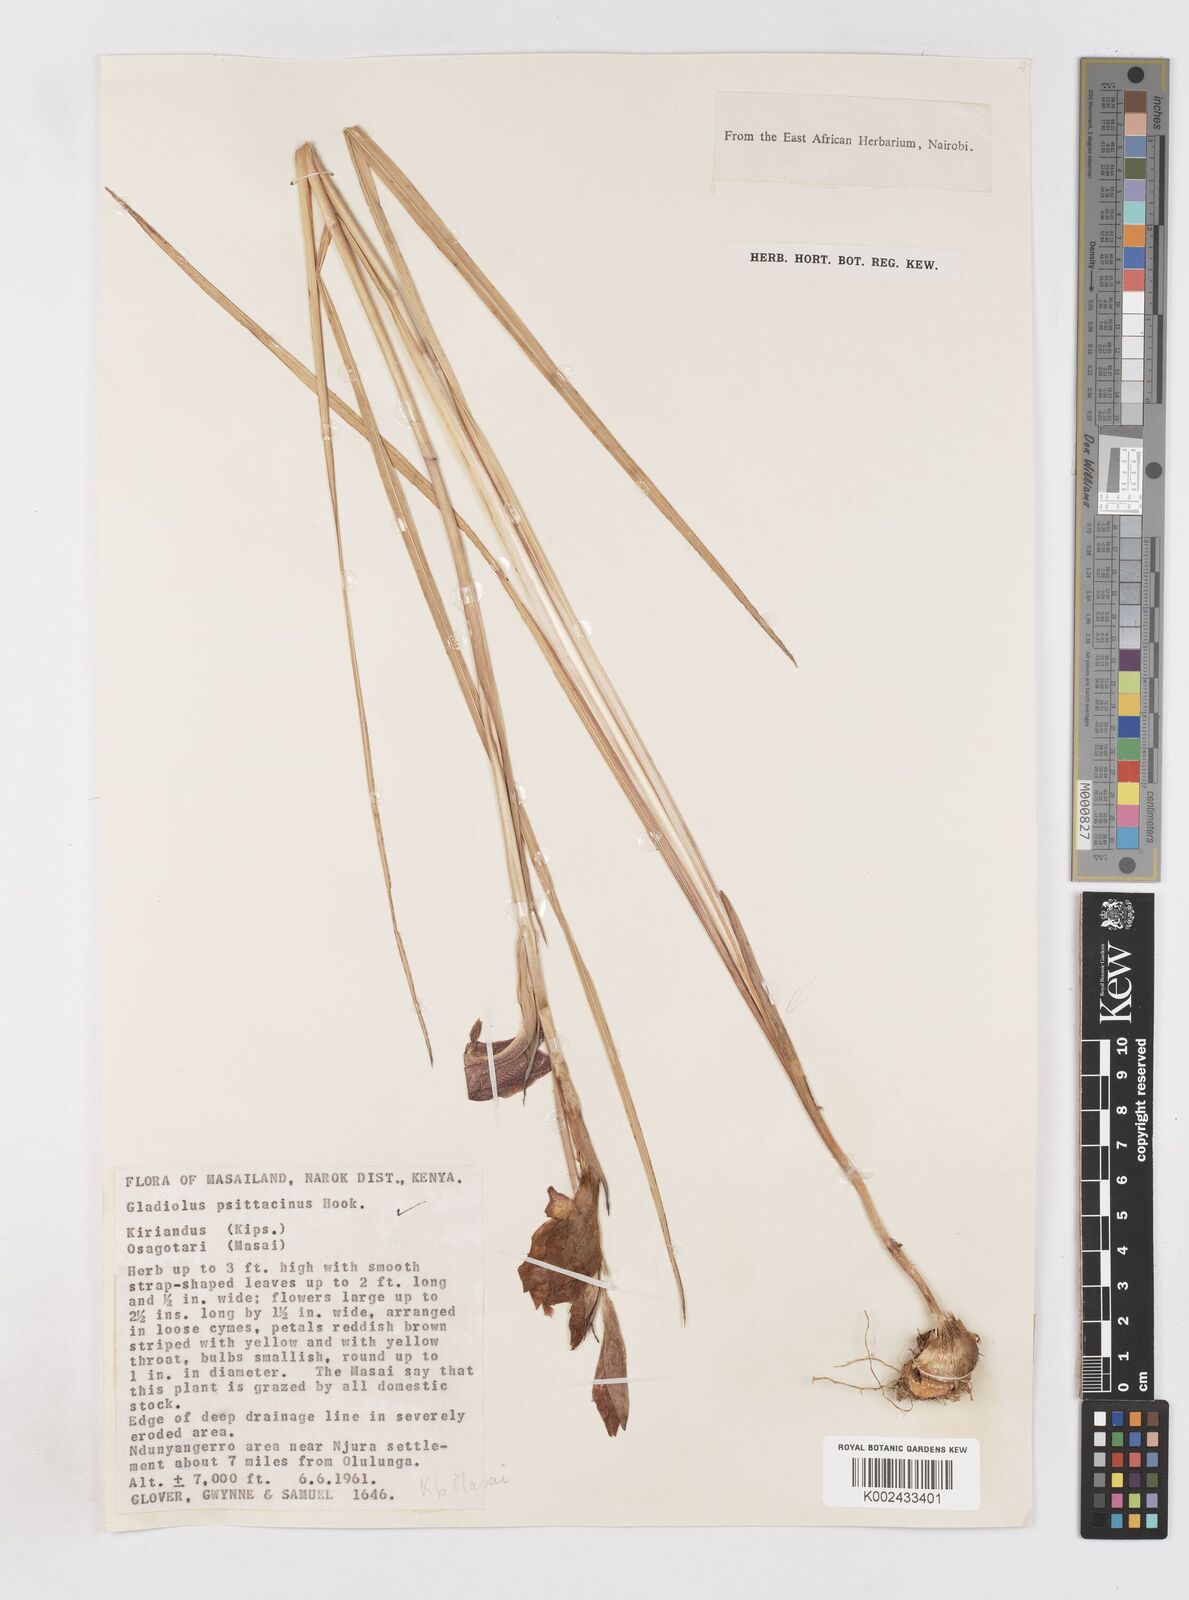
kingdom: Plantae
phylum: Tracheophyta
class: Liliopsida
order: Asparagales
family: Iridaceae
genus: Gladiolus
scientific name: Gladiolus dalenii
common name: Cornflag
